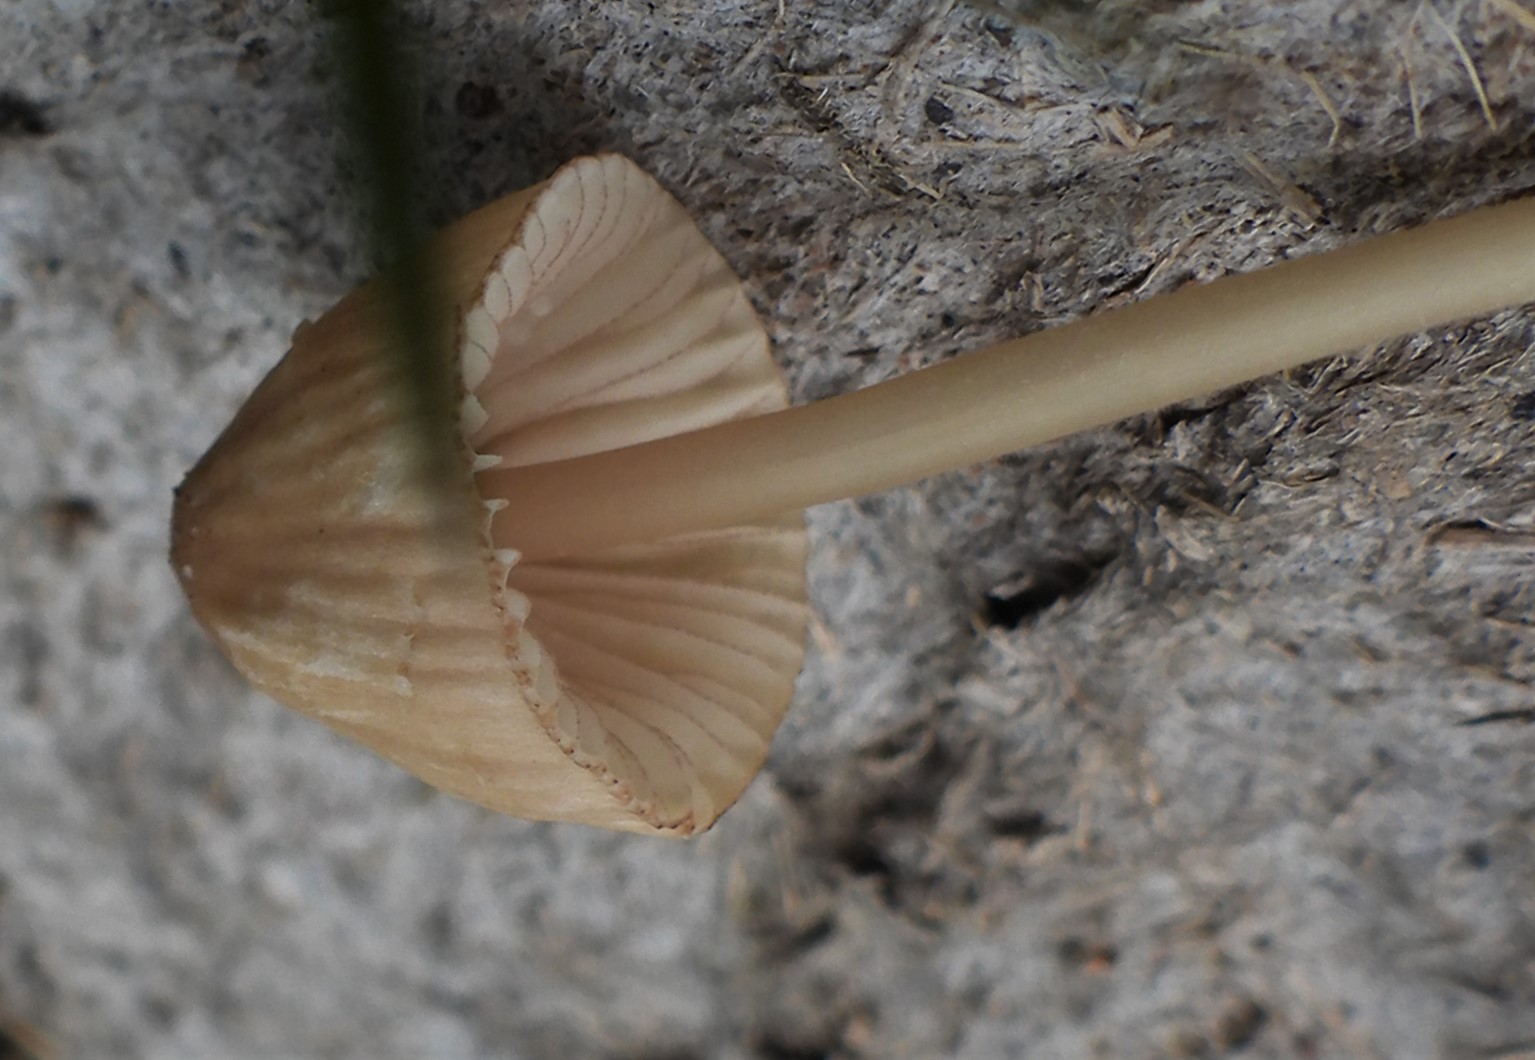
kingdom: Fungi
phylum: Basidiomycota
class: Agaricomycetes
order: Agaricales
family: Mycenaceae
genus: Mycena
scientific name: Mycena olivaceomarginata
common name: brunægget huesvamp
